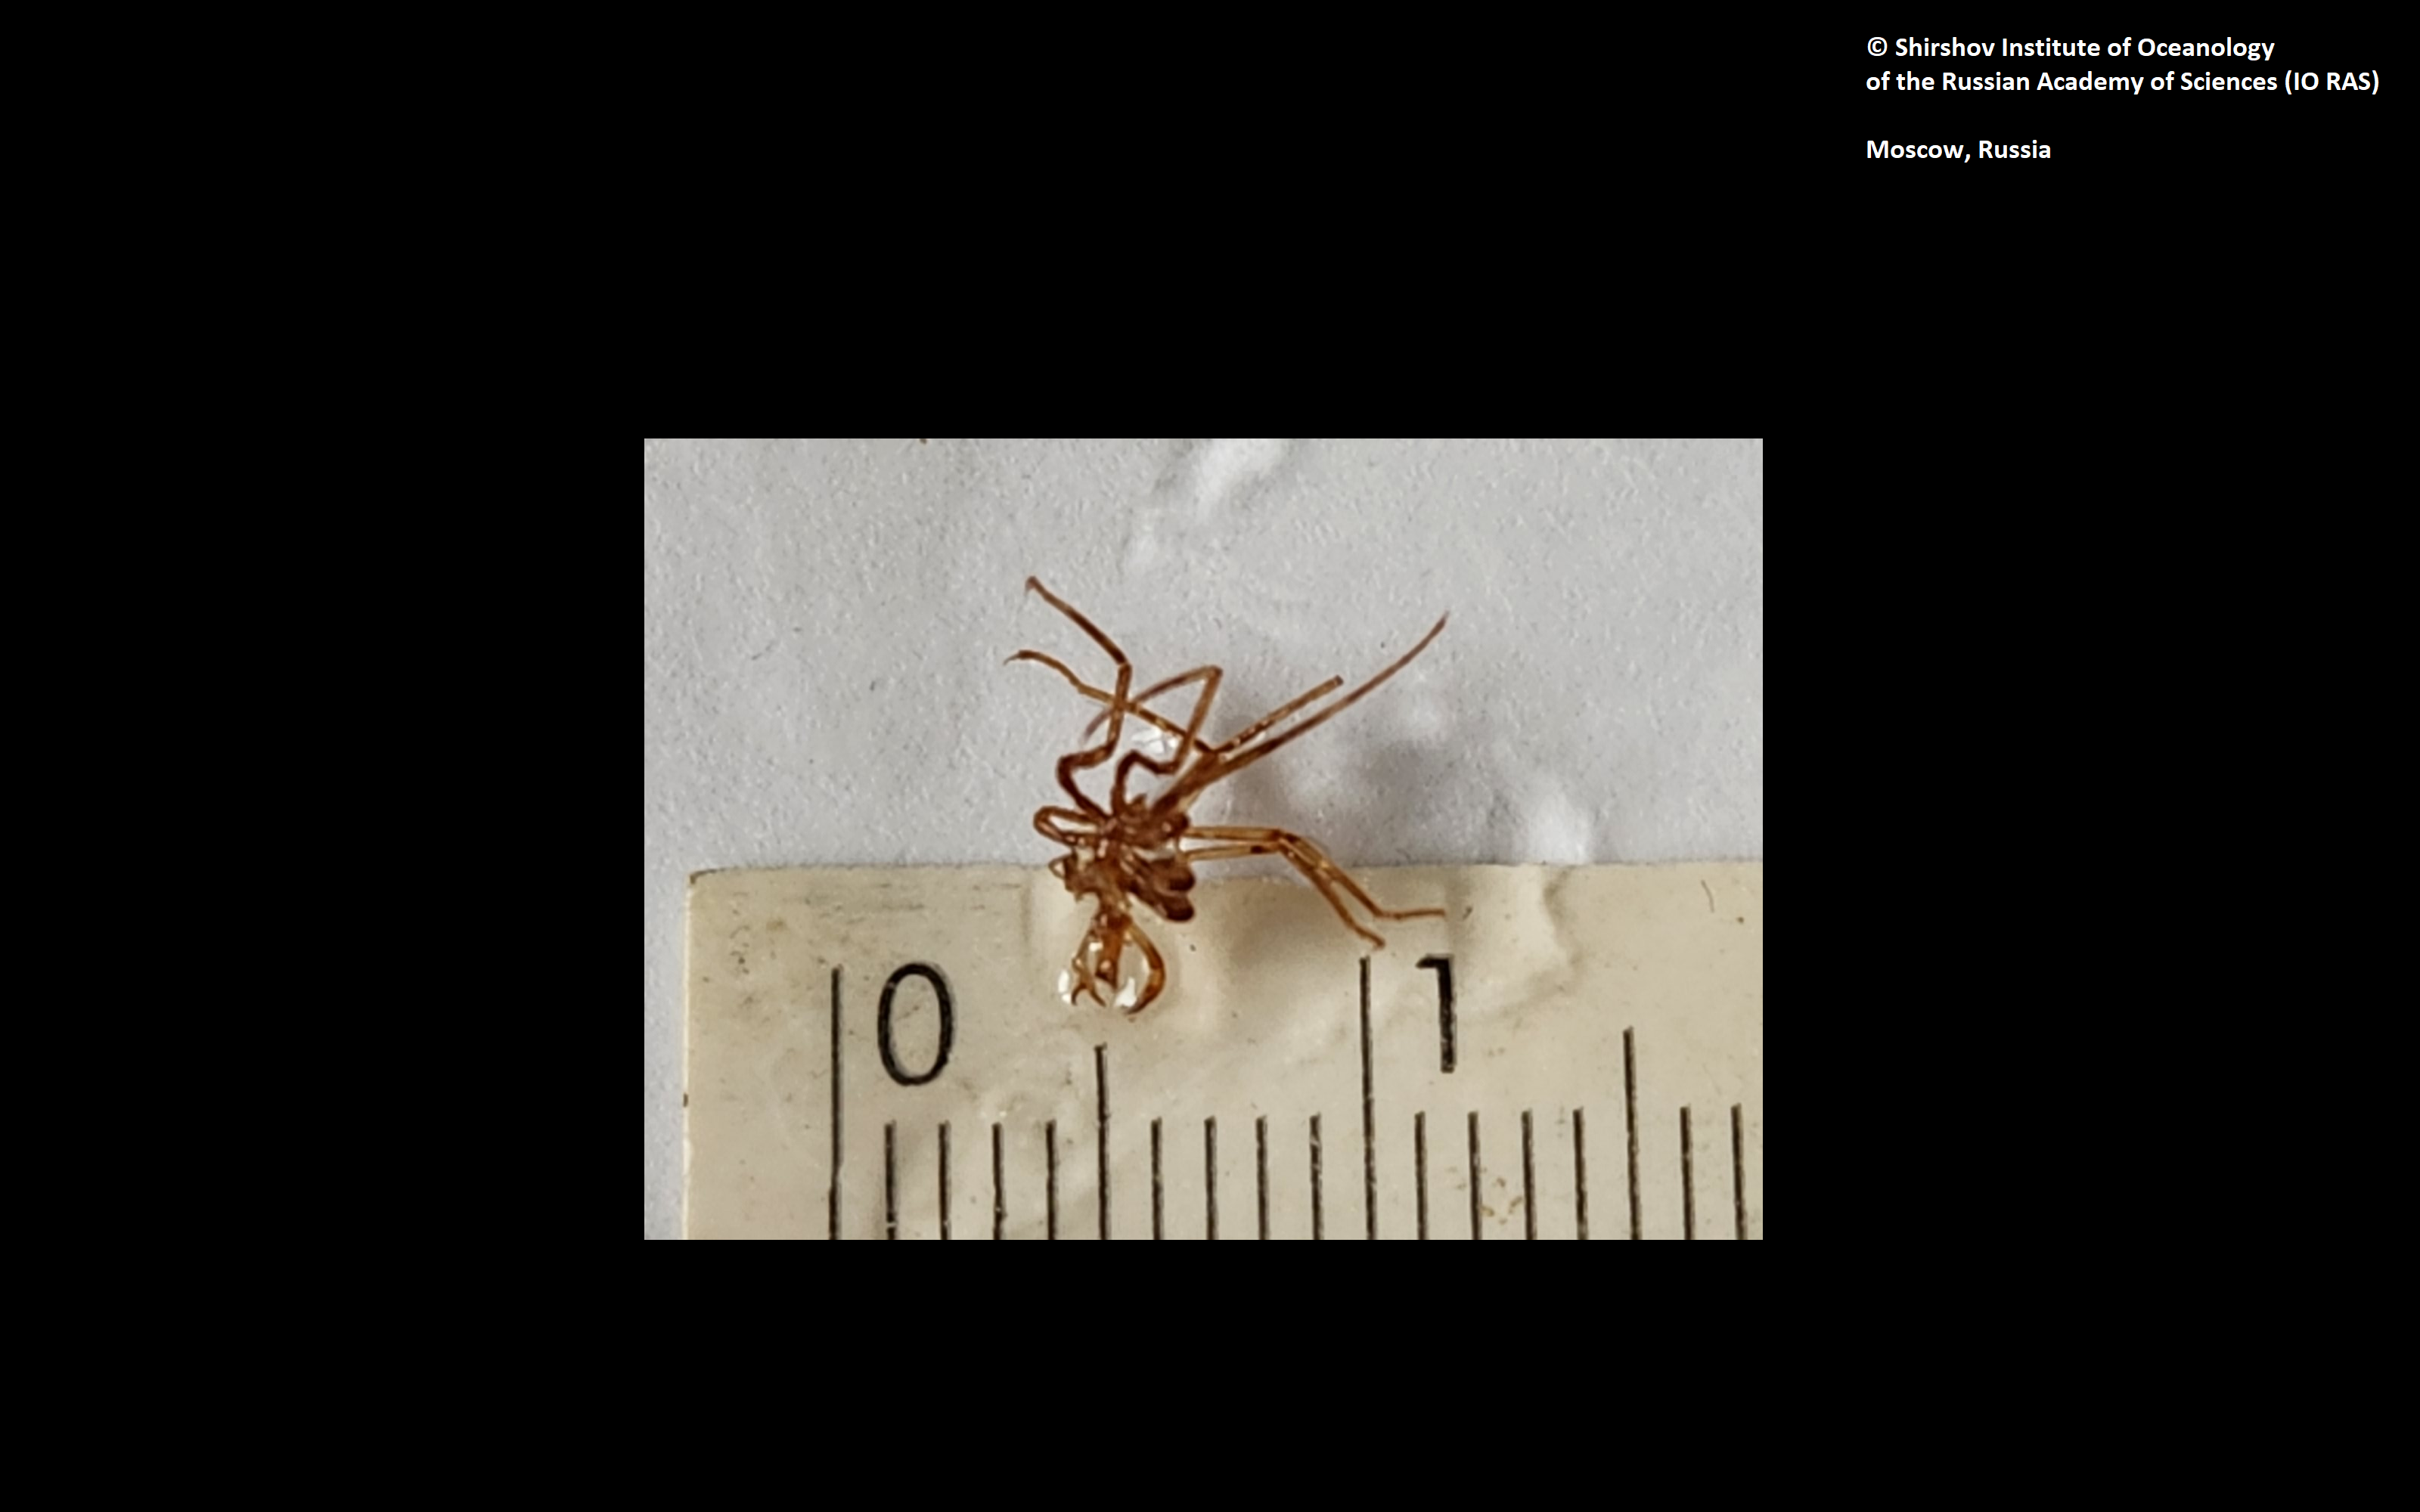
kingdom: Animalia
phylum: Arthropoda
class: Pycnogonida
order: Pantopoda
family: Nymphonidae
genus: Nymphon
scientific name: Nymphon nipponense
